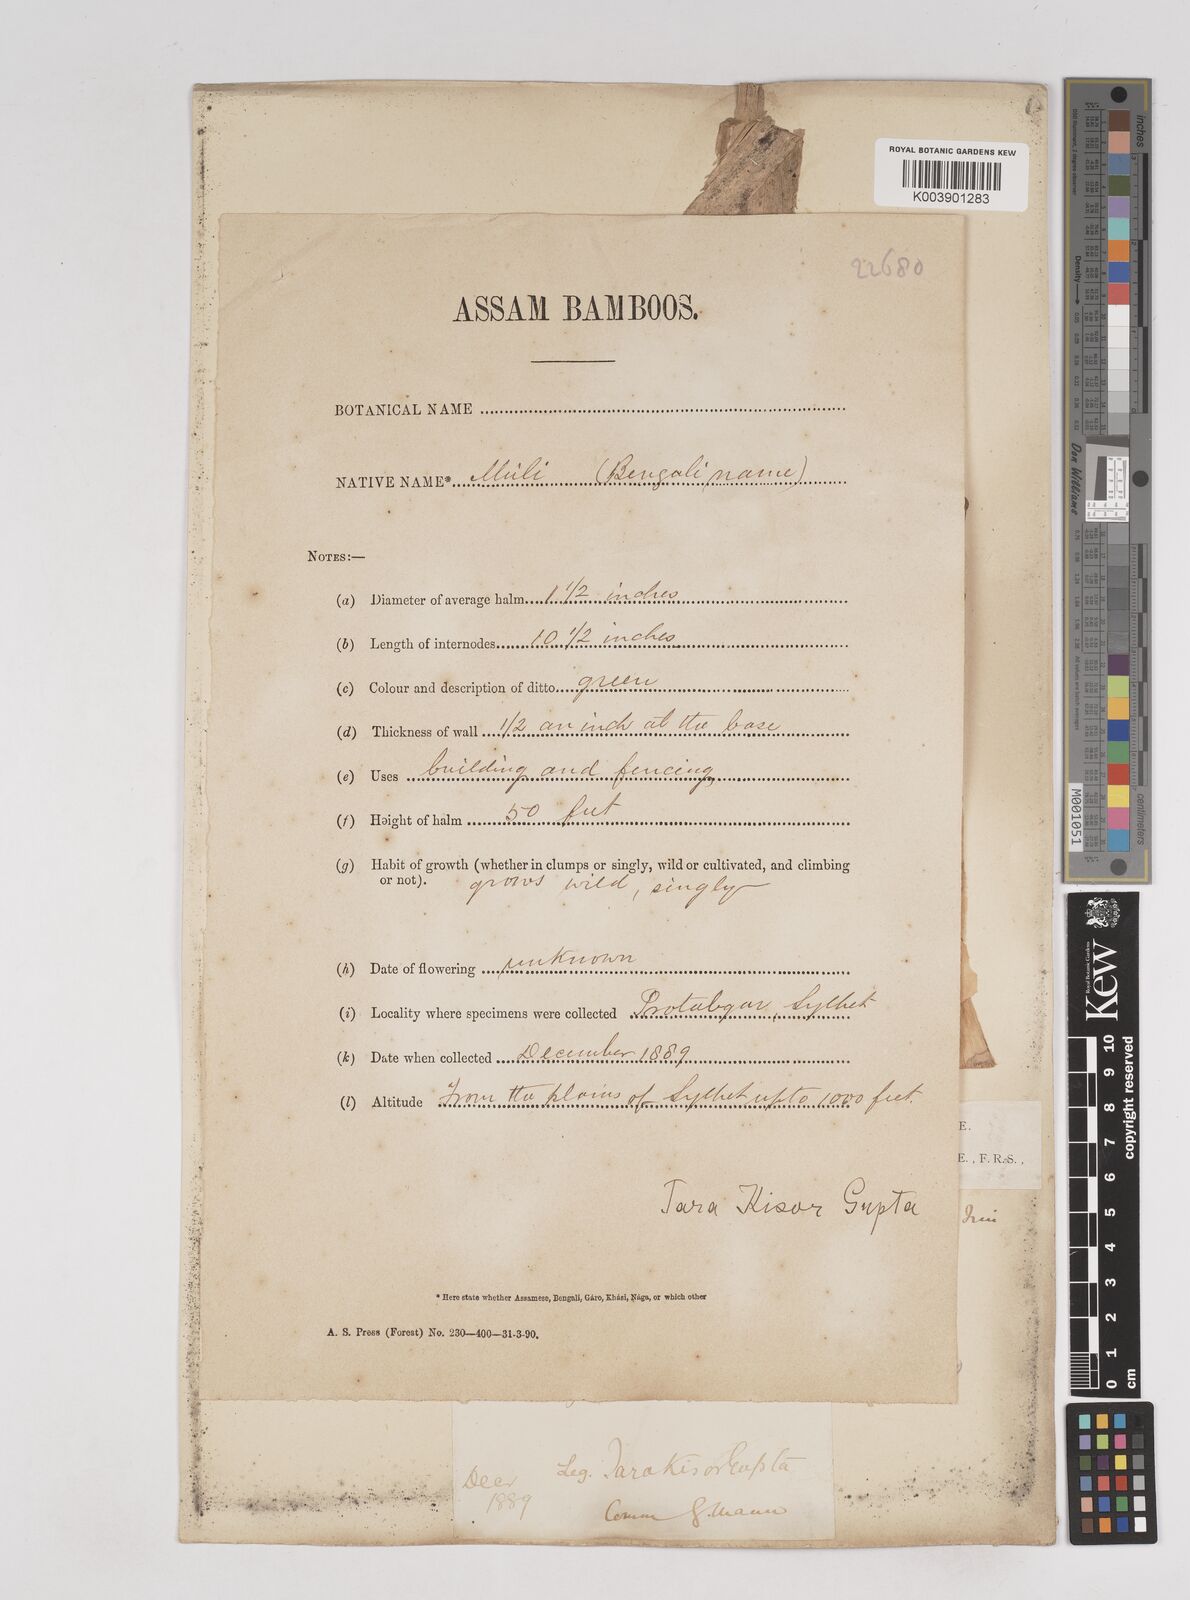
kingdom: Plantae
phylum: Tracheophyta
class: Liliopsida
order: Poales
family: Poaceae
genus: Melocanna
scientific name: Melocanna baccifera
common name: Berry bamboo
